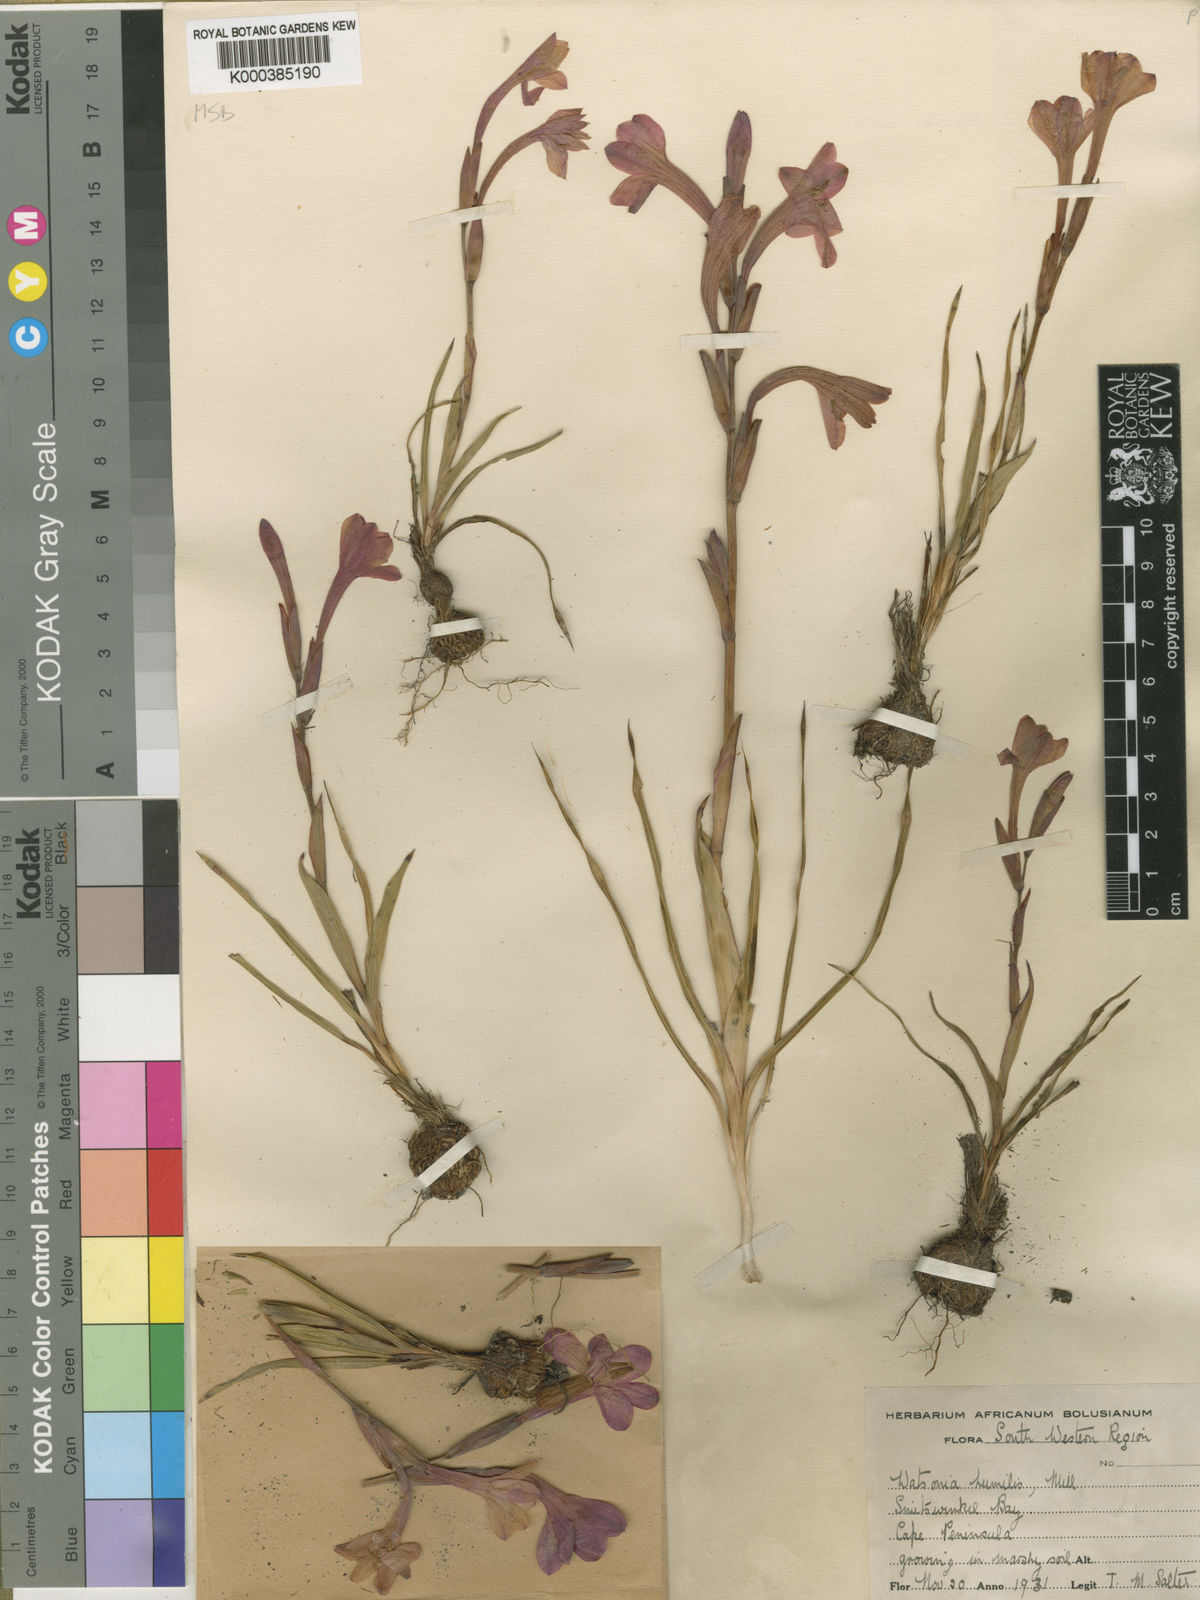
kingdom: Plantae
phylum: Tracheophyta
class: Liliopsida
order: Asparagales
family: Iridaceae
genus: Watsonia
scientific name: Watsonia humilis
